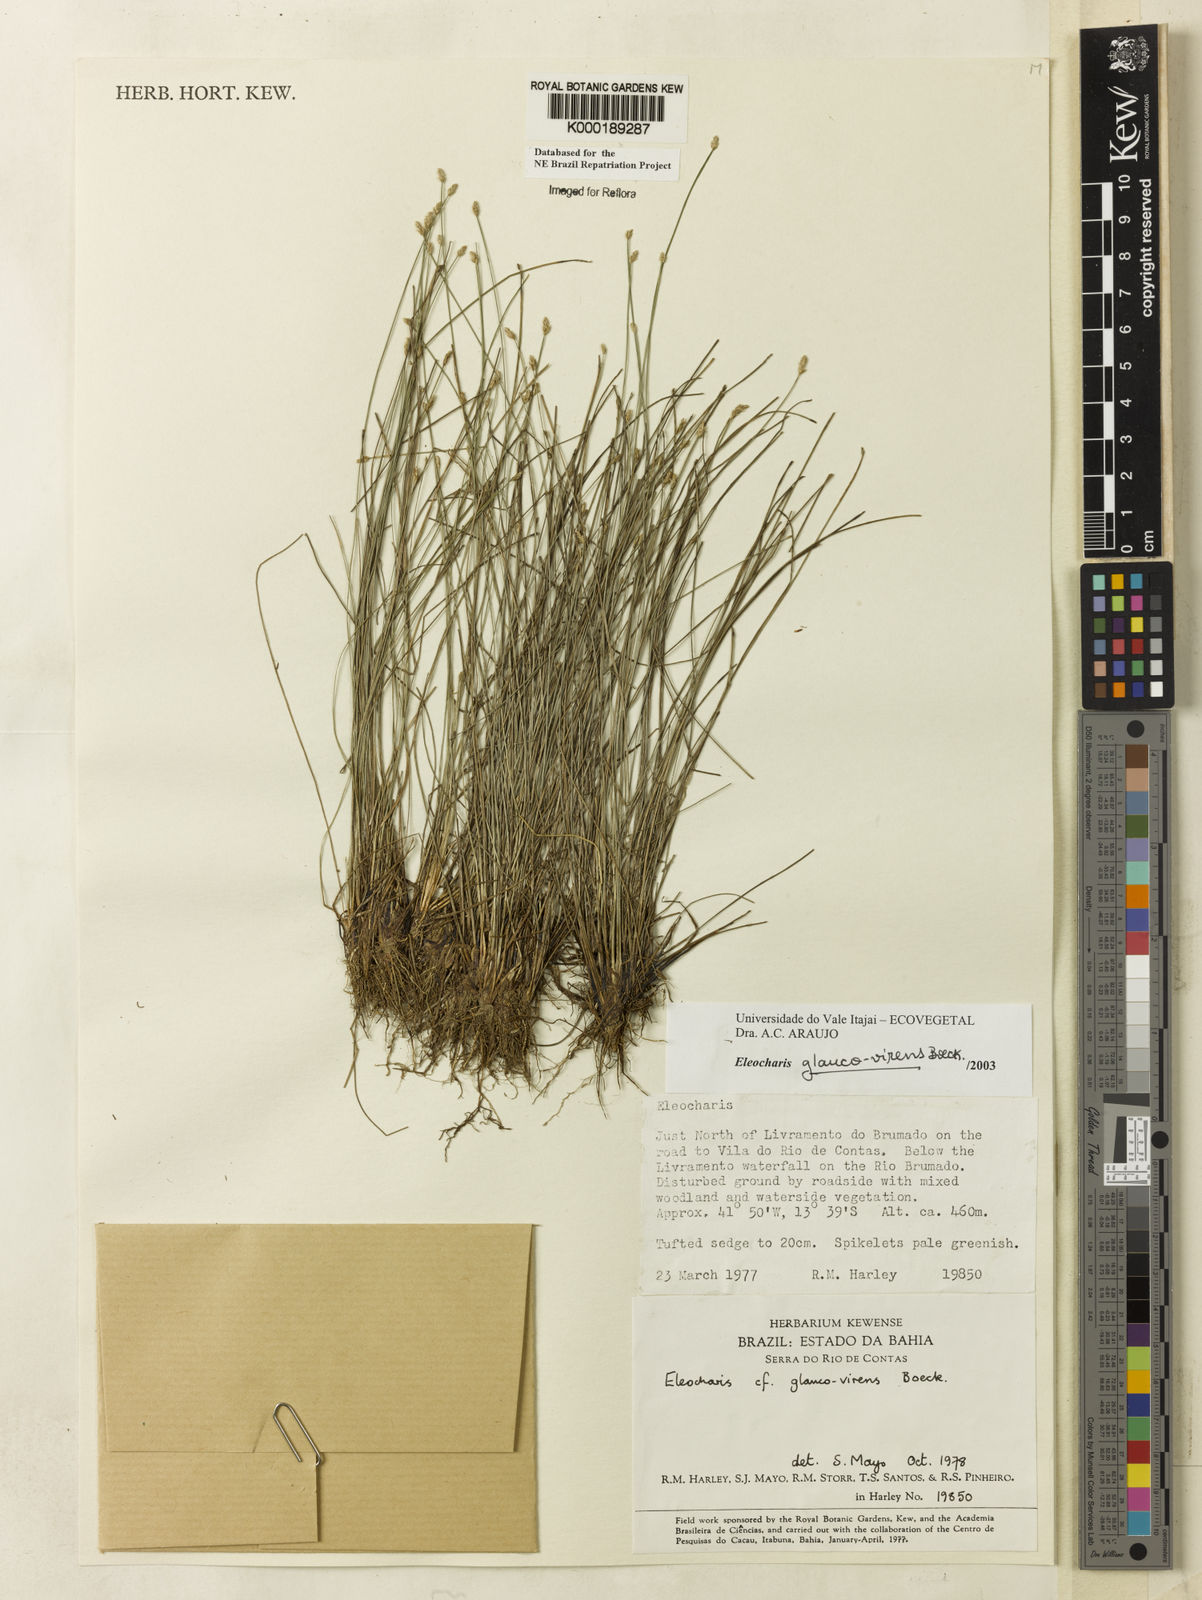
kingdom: Plantae
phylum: Tracheophyta
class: Liliopsida
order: Poales
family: Cyperaceae
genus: Eleocharis
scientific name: Eleocharis glaucovirens
